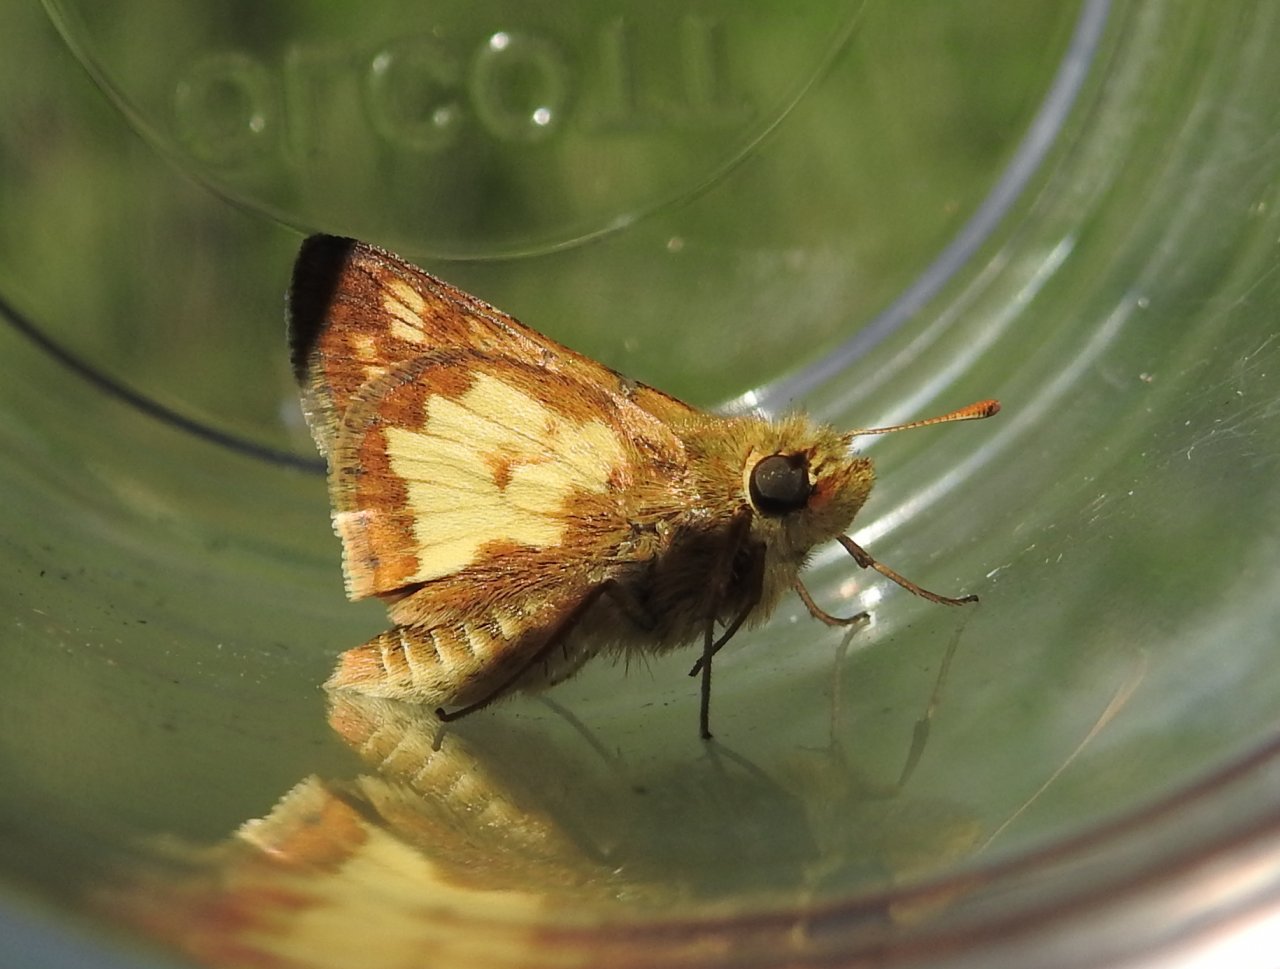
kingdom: Animalia
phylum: Arthropoda
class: Insecta
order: Lepidoptera
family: Hesperiidae
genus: Polites
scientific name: Polites coras
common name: Peck's Skipper
